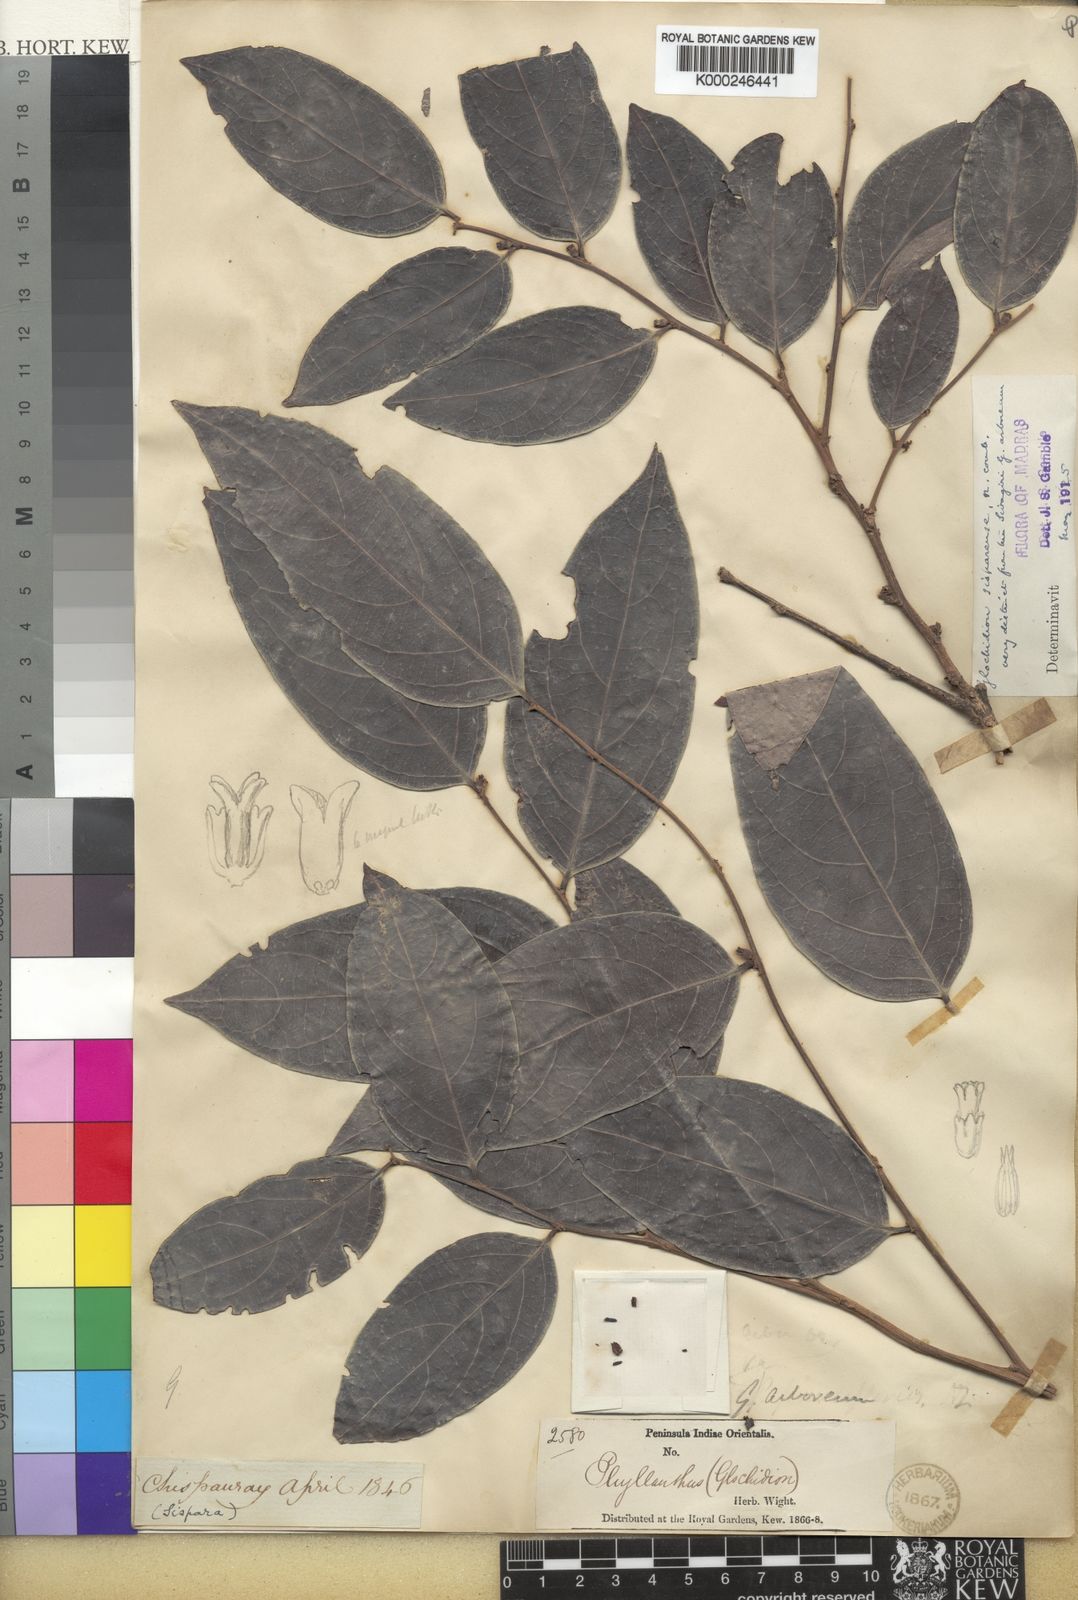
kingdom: Plantae
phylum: Tracheophyta
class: Magnoliopsida
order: Malpighiales
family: Phyllanthaceae
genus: Glochidion
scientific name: Glochidion candolleanum
